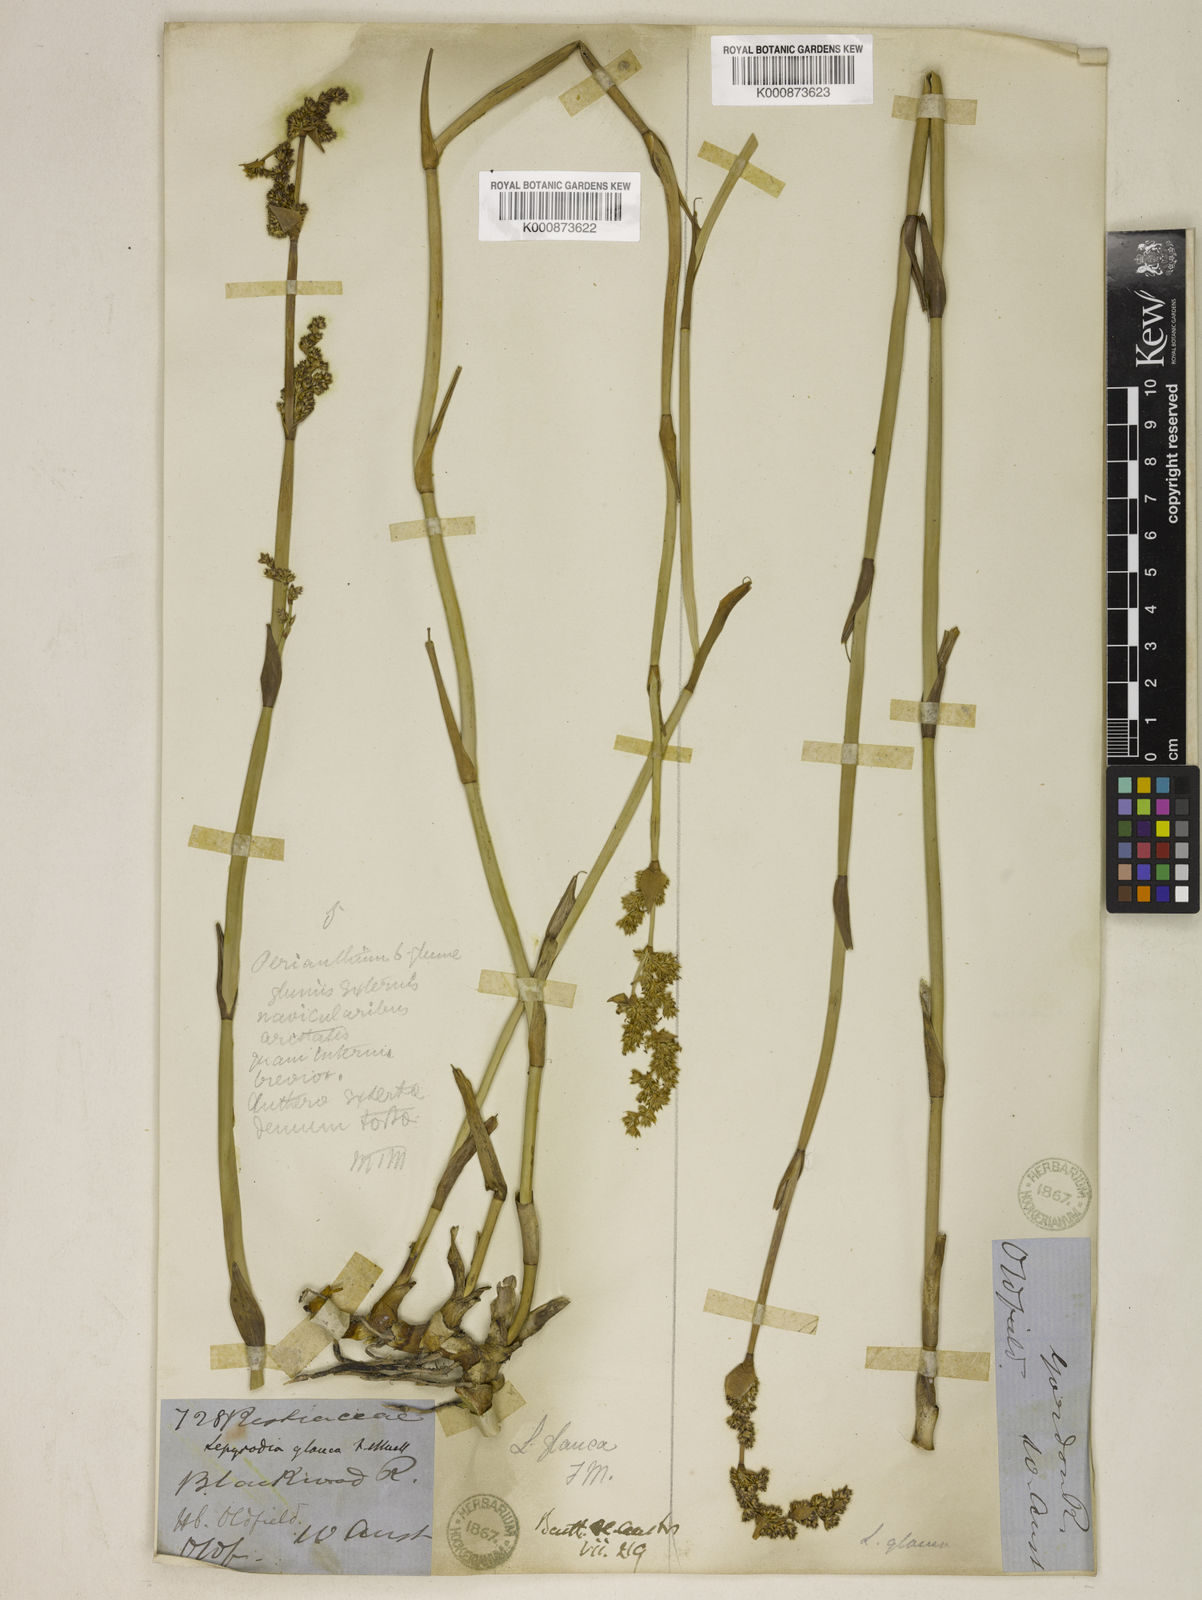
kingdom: Plantae
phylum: Tracheophyta
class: Liliopsida
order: Poales
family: Restionaceae
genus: Lepyrodia
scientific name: Lepyrodia glauca
